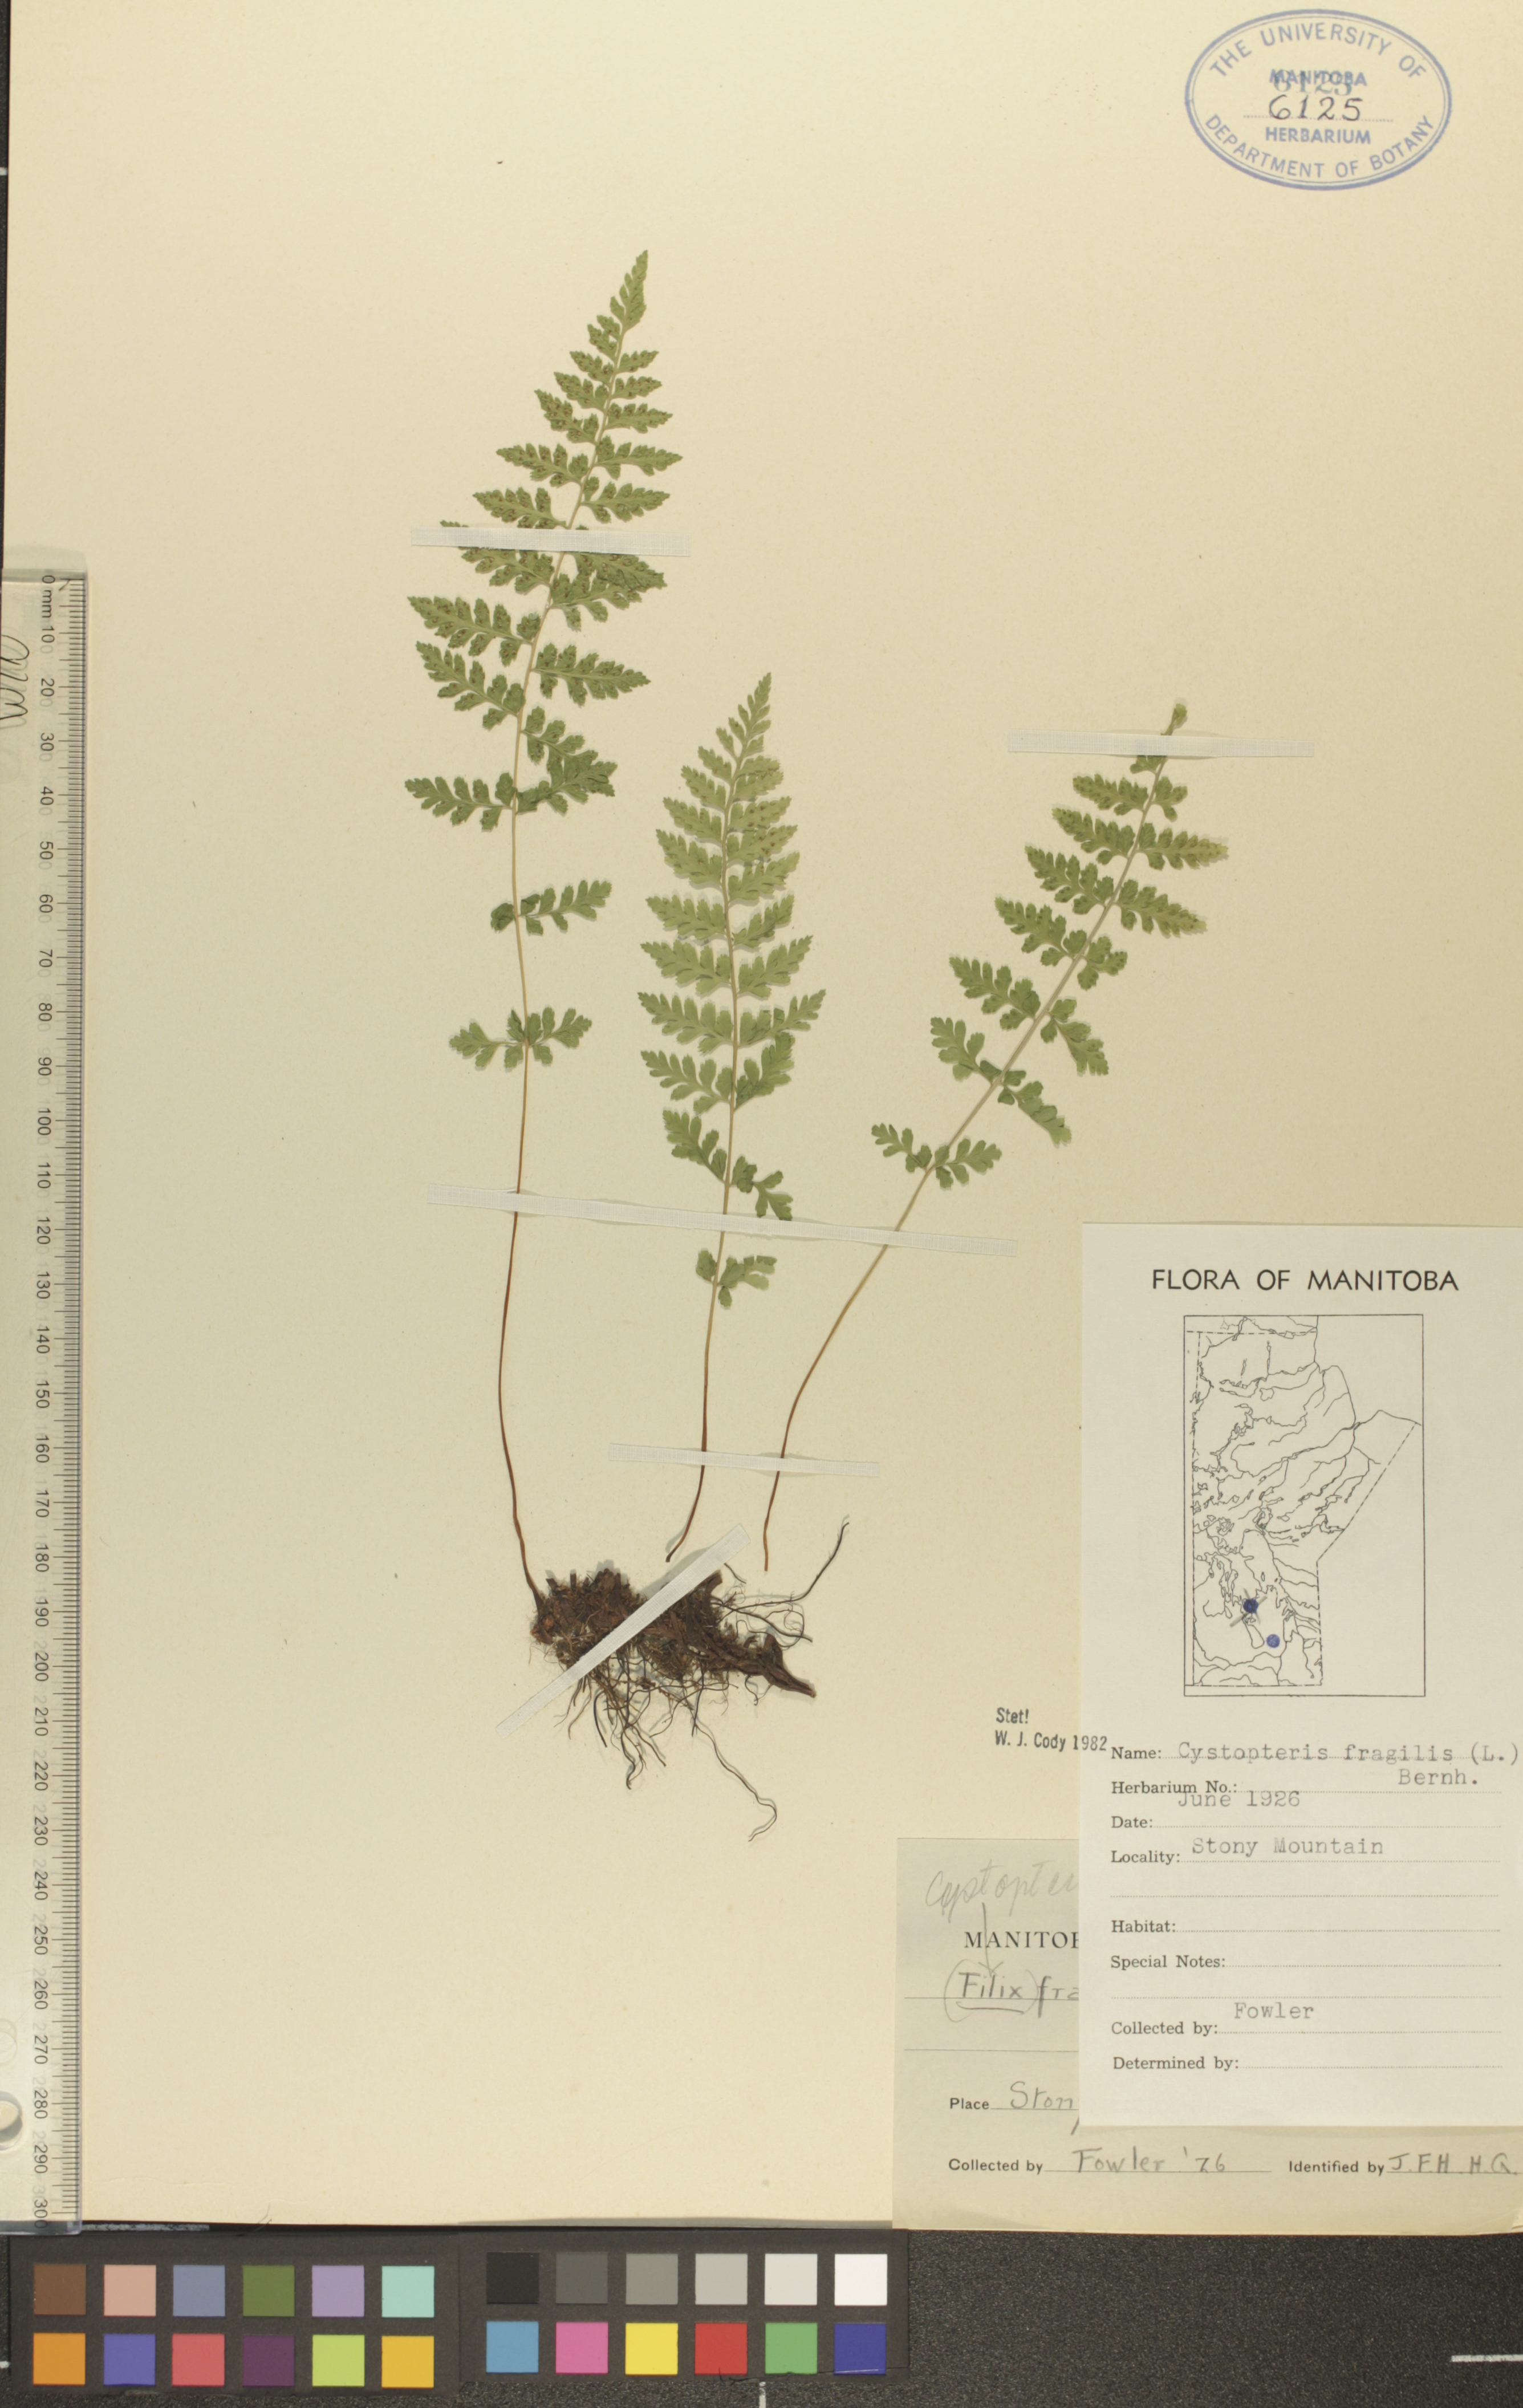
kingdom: Plantae
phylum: Tracheophyta
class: Polypodiopsida
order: Polypodiales
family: Cystopteridaceae
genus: Cystopteris
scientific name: Cystopteris fragilis
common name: Brittle bladder fern
